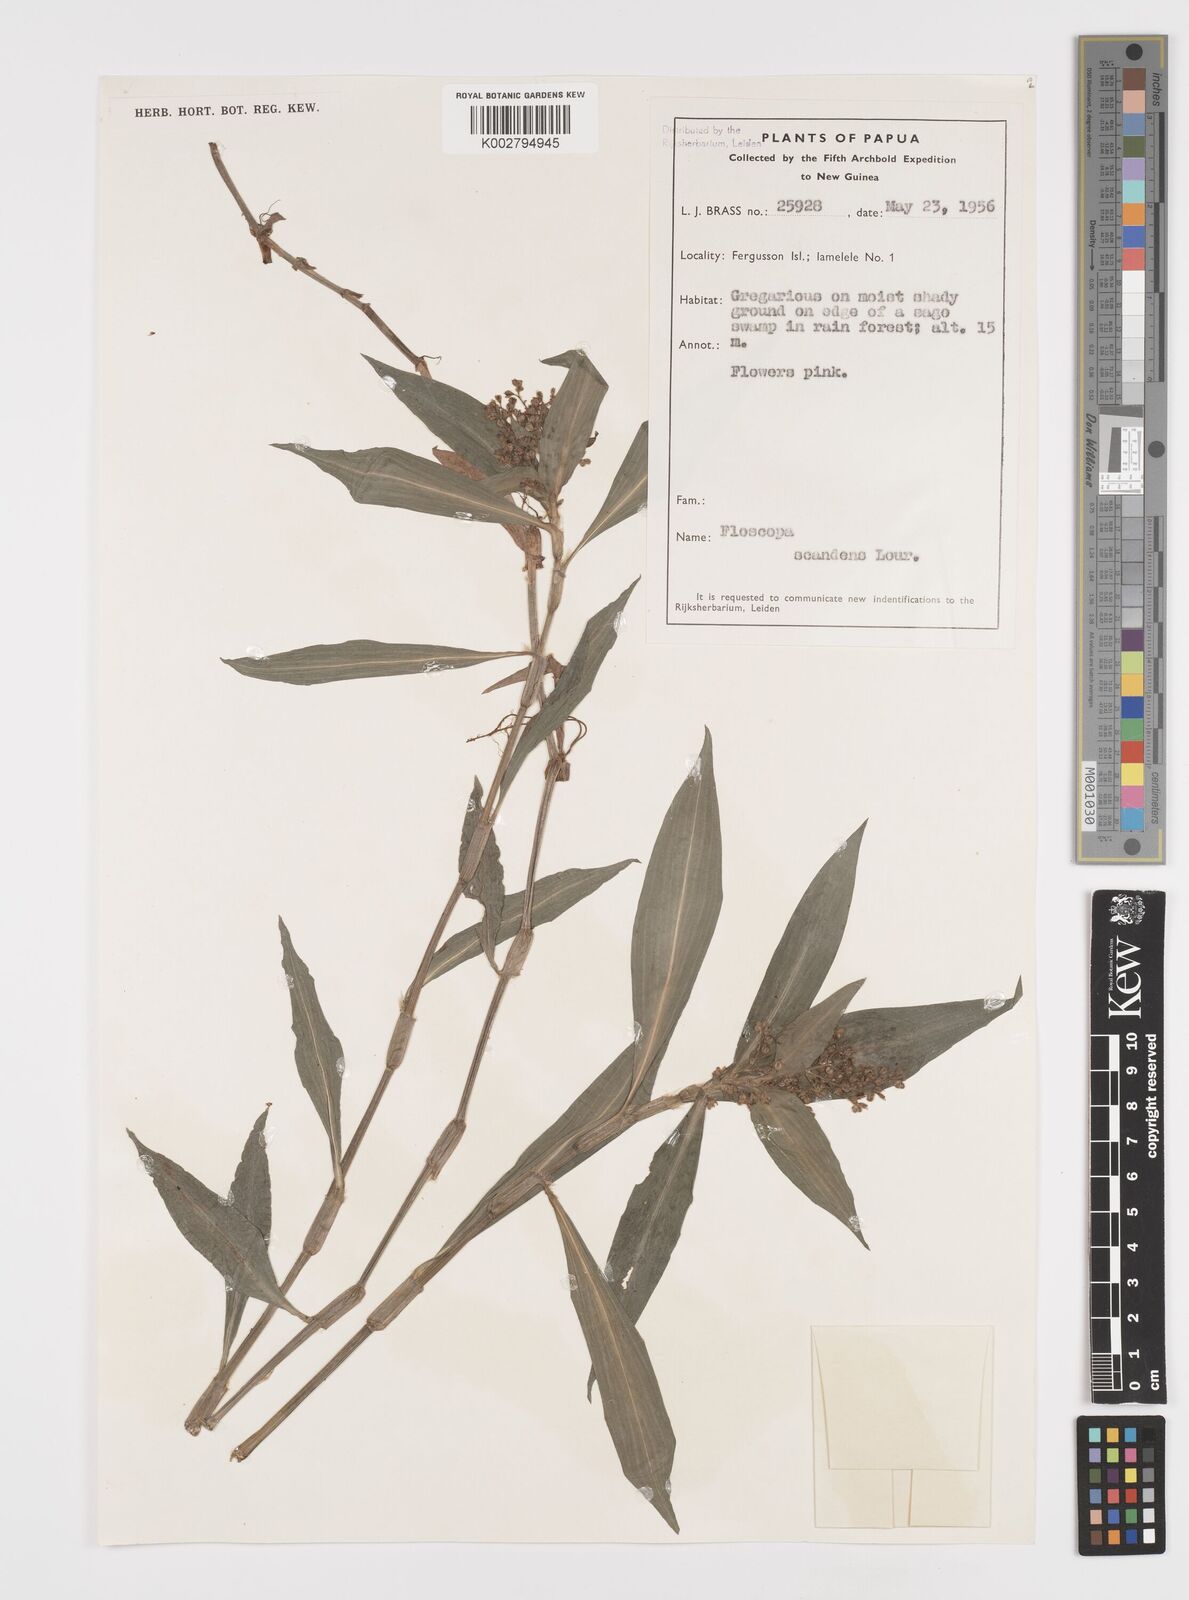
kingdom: Plantae
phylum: Tracheophyta
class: Liliopsida
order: Commelinales
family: Commelinaceae
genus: Floscopa
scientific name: Floscopa scandens
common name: Climbing flower cup
